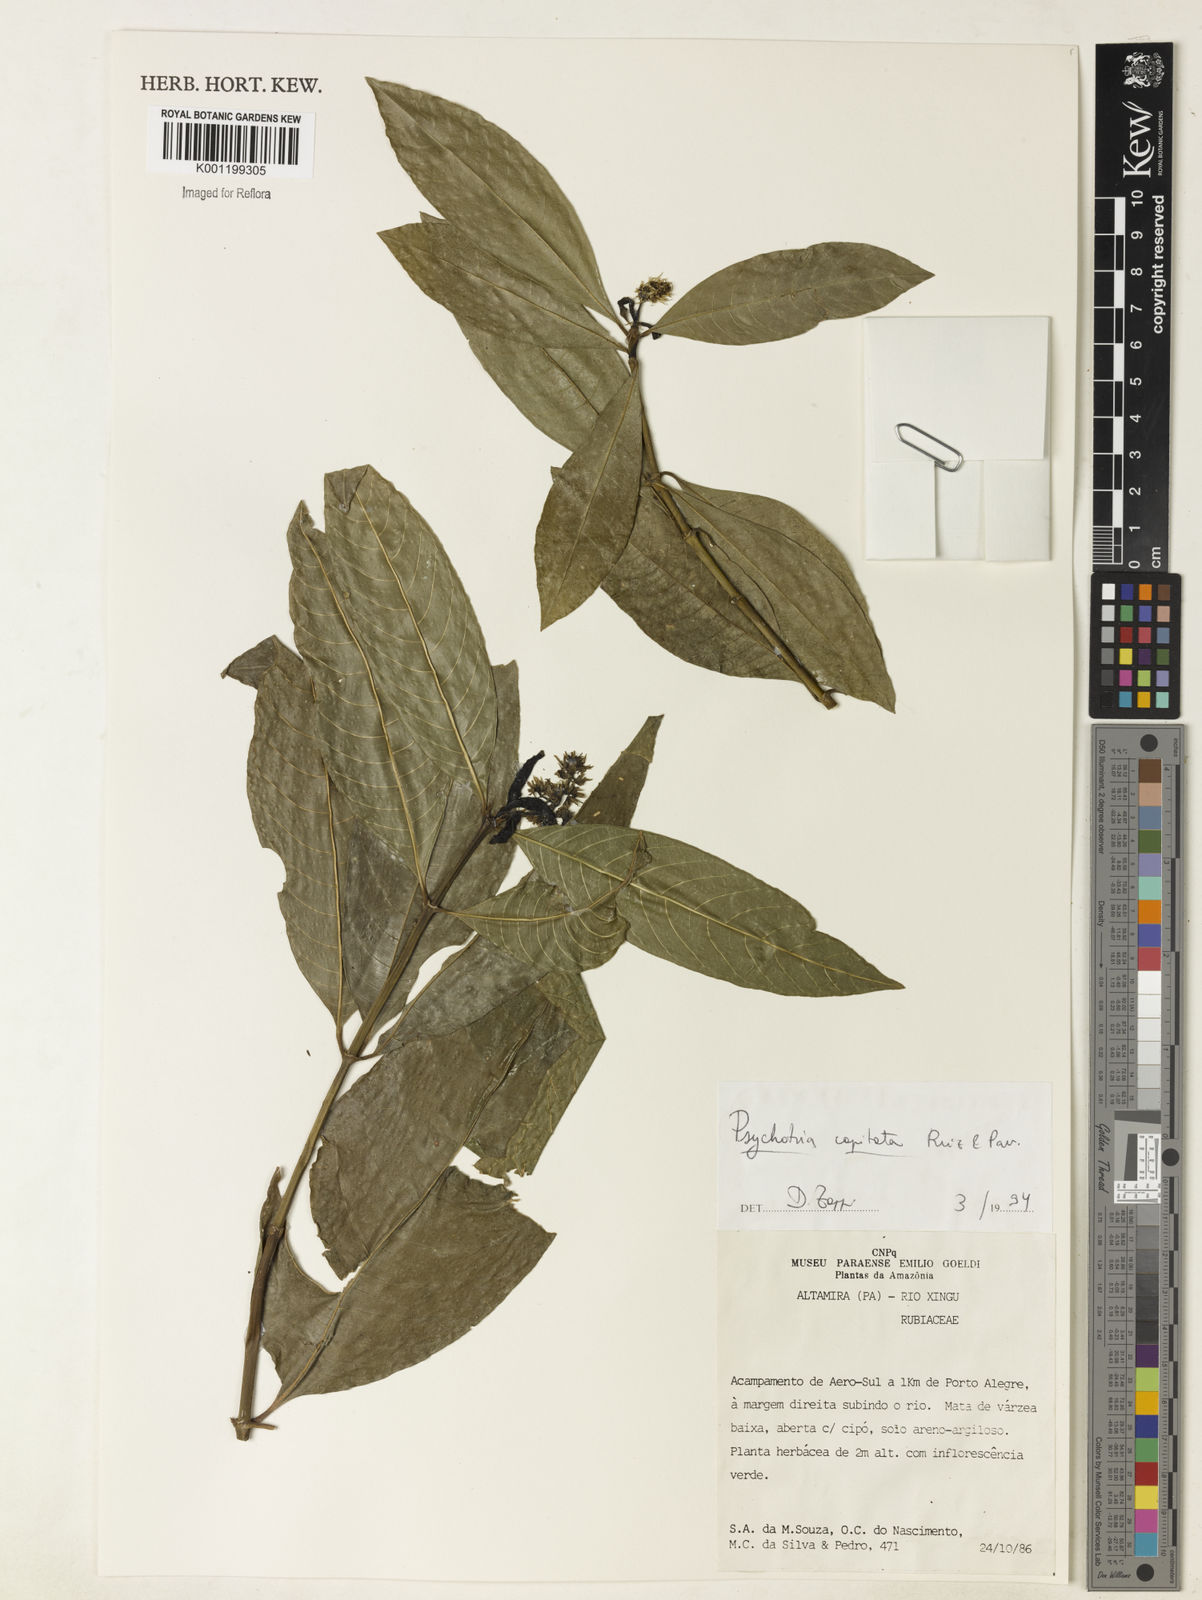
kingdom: Plantae
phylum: Tracheophyta
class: Magnoliopsida
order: Gentianales
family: Rubiaceae
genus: Palicourea
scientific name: Palicourea violacea
